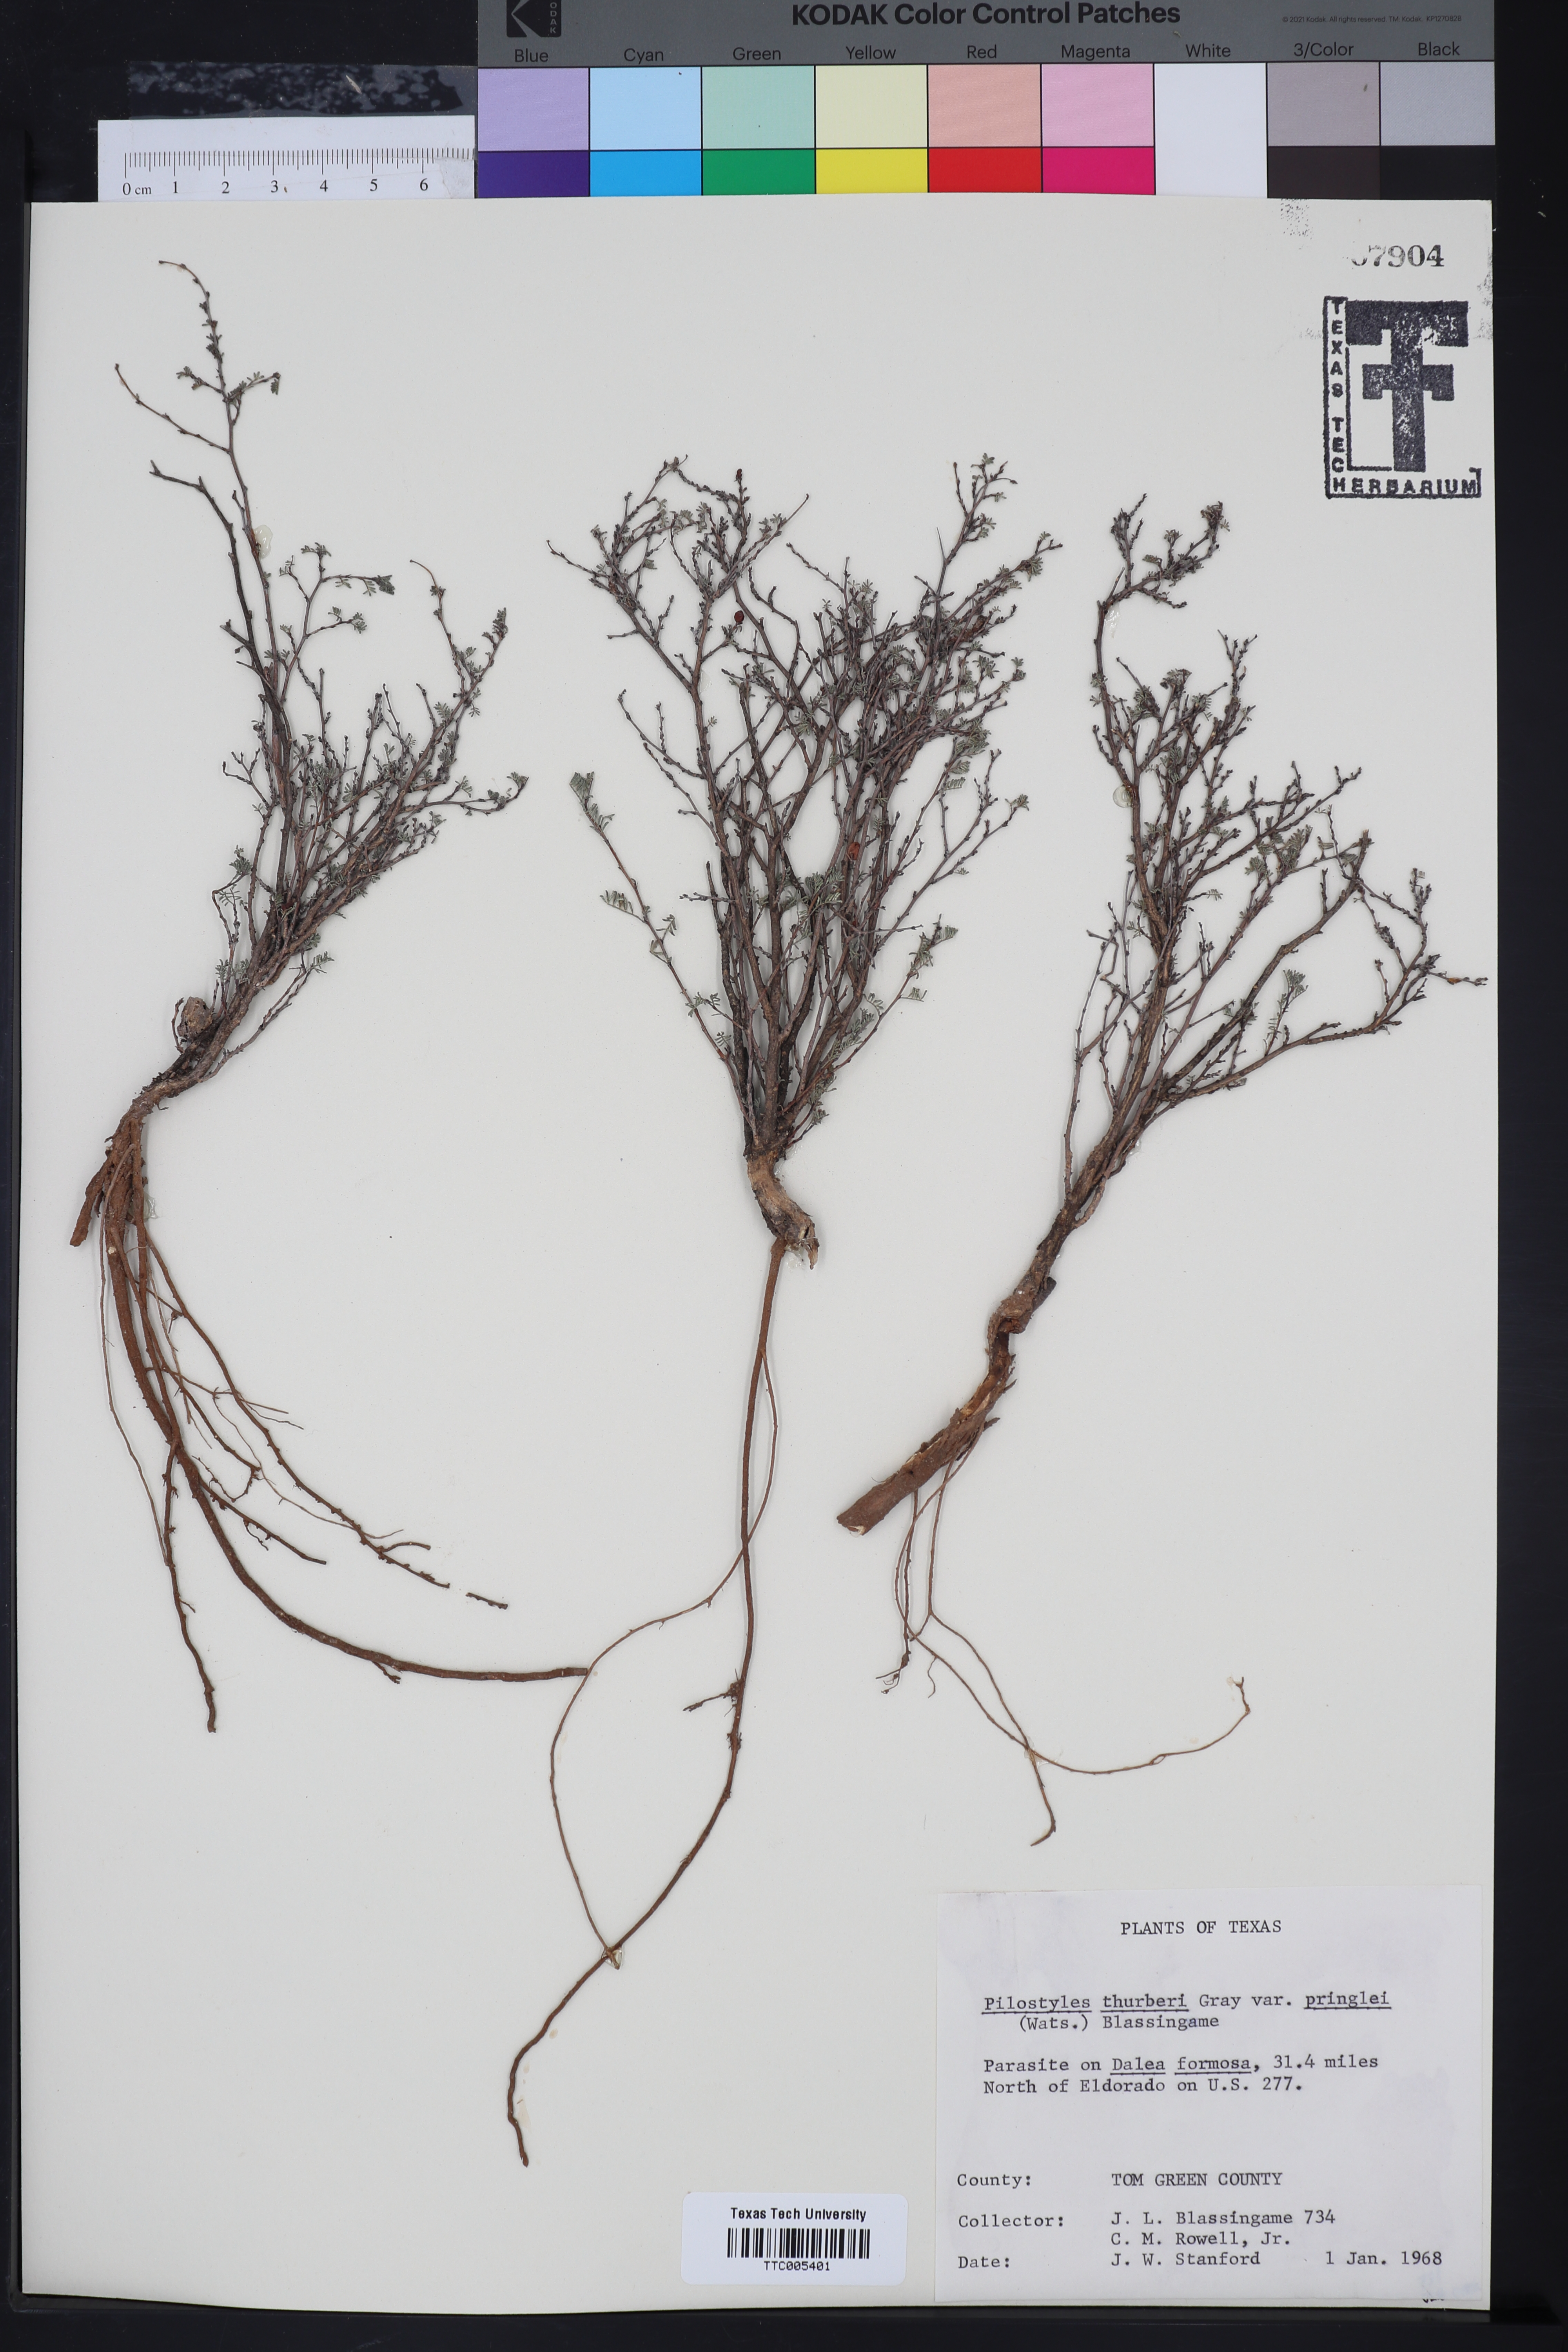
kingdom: Plantae
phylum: Tracheophyta
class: Magnoliopsida
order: Cucurbitales
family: Apodanthaceae
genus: Pilostyles
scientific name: Pilostyles thurberi
